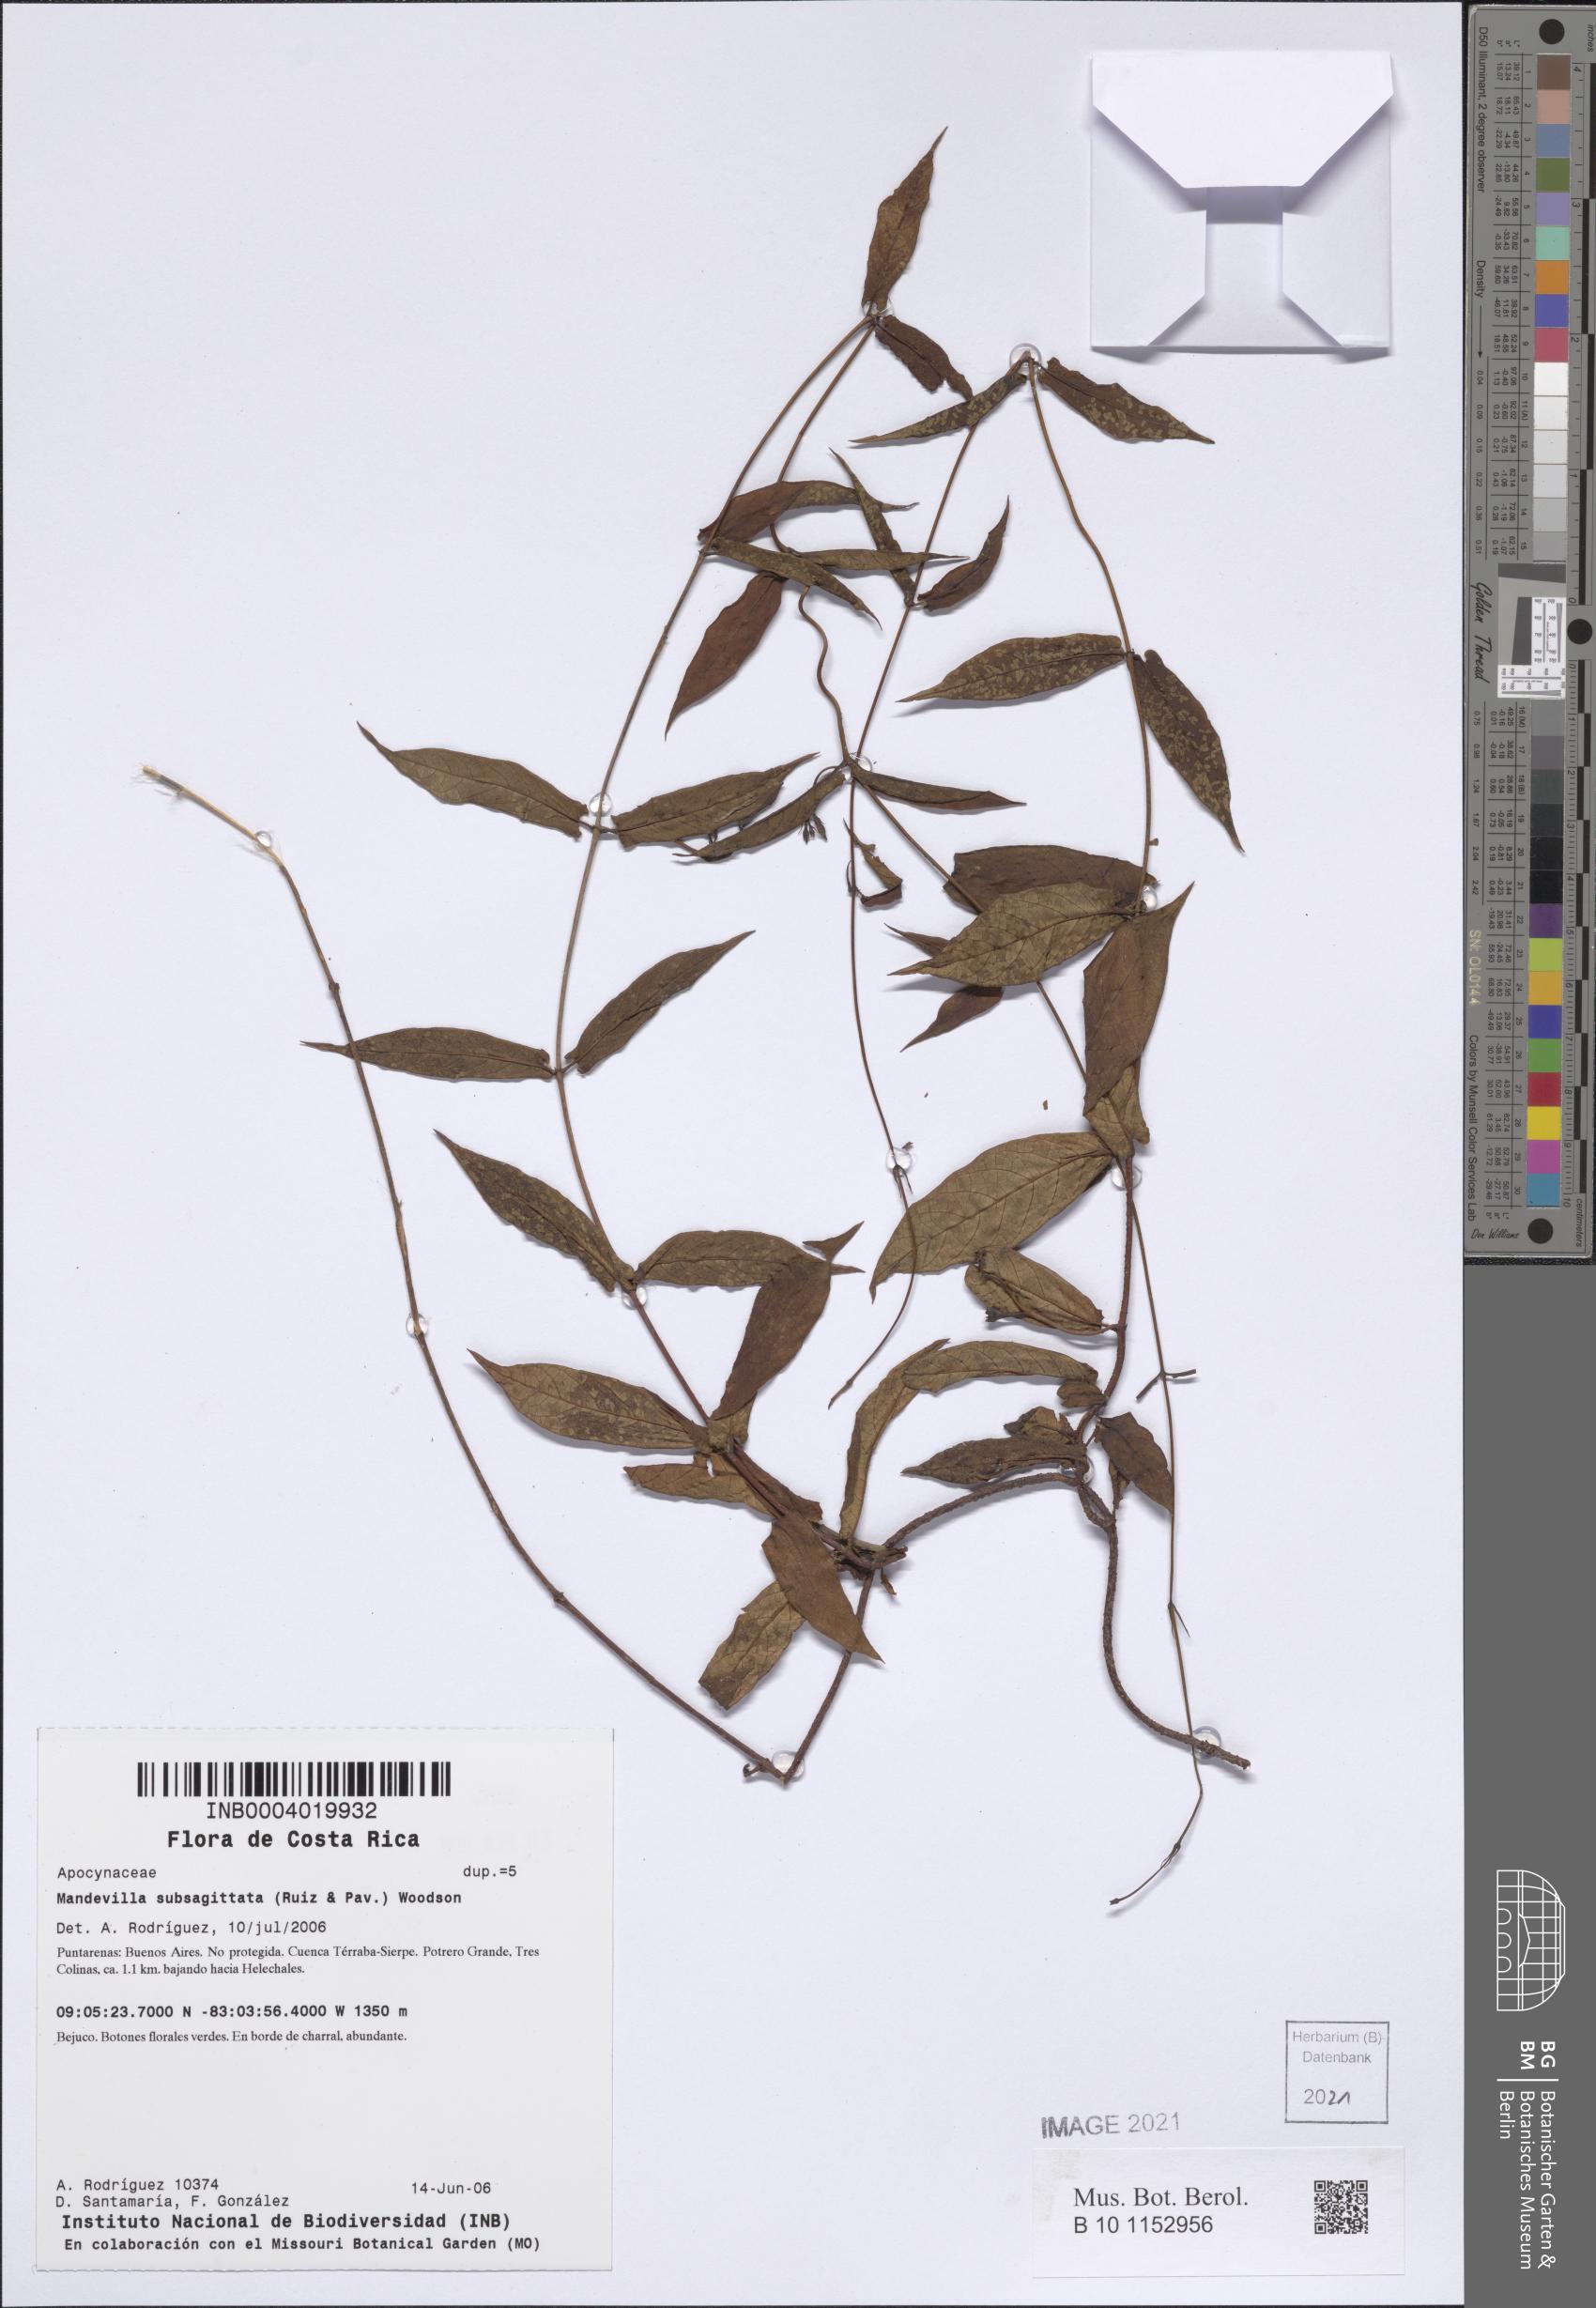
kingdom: Plantae
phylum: Tracheophyta
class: Magnoliopsida
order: Gentianales
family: Apocynaceae
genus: Mandevilla
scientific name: Mandevilla subsagittata
